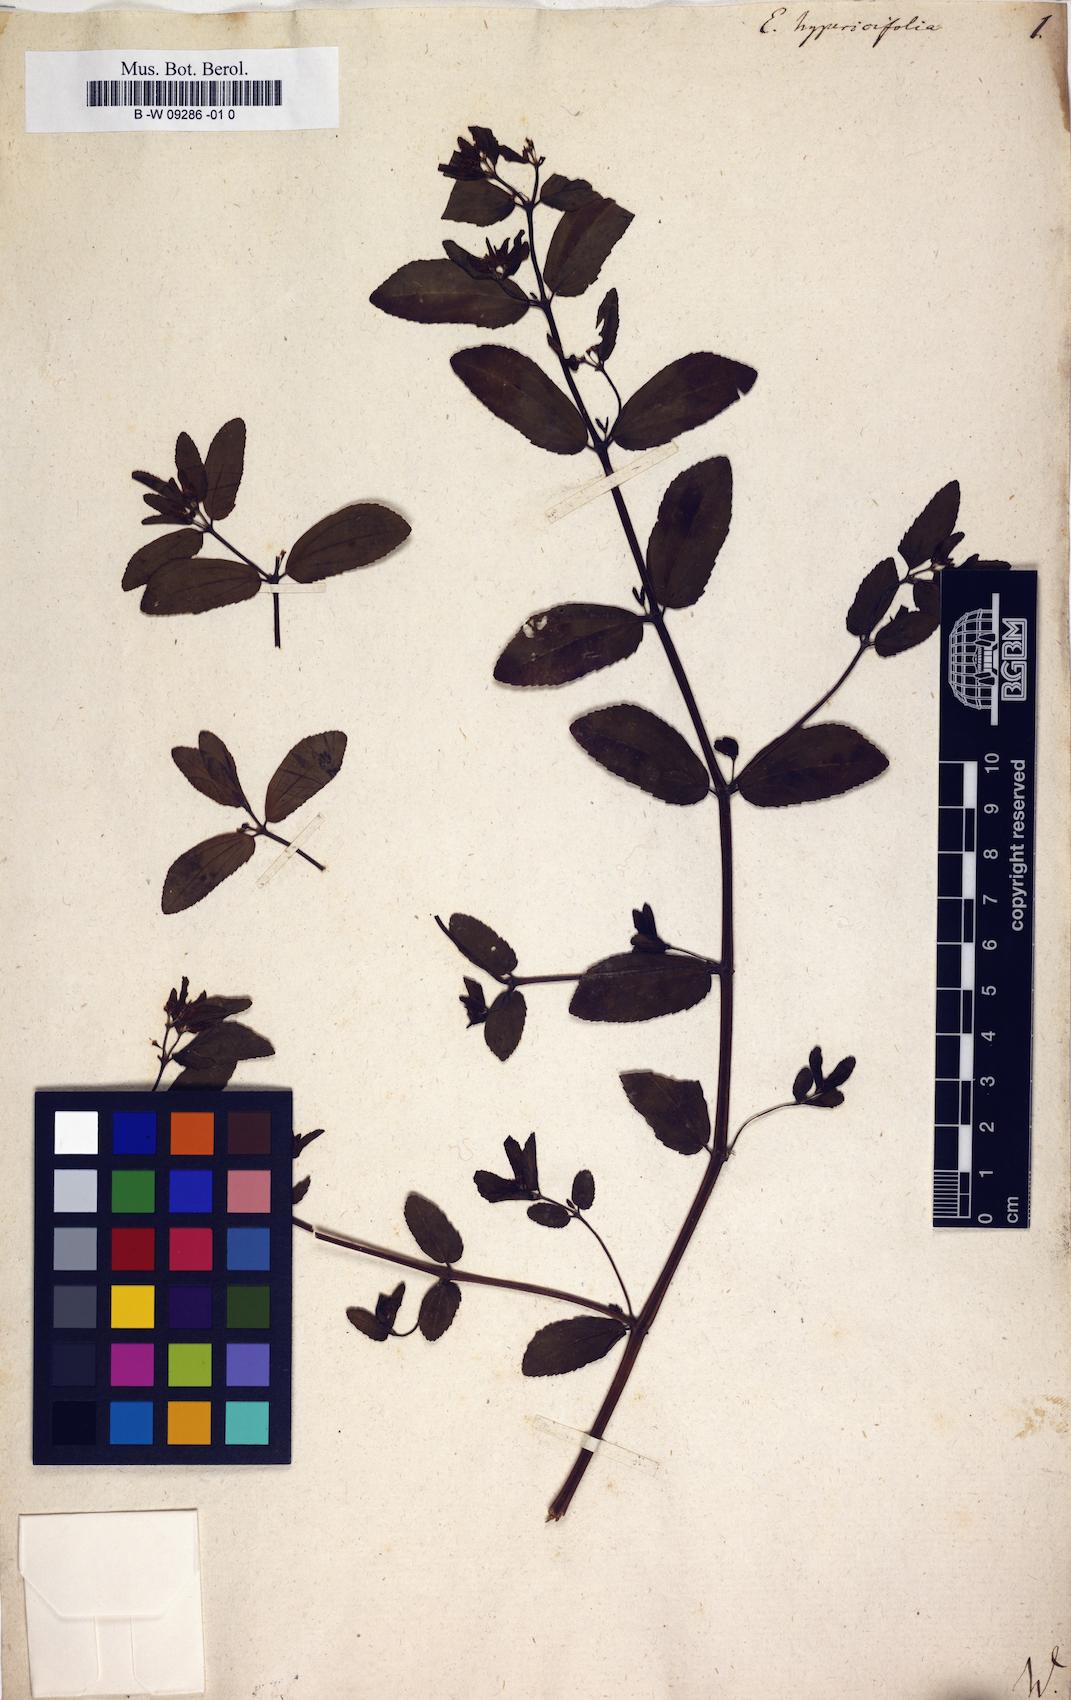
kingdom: Plantae
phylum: Tracheophyta
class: Magnoliopsida
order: Malpighiales
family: Euphorbiaceae
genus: Euphorbia
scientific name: Euphorbia hypericifolia
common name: Graceful sandmat
